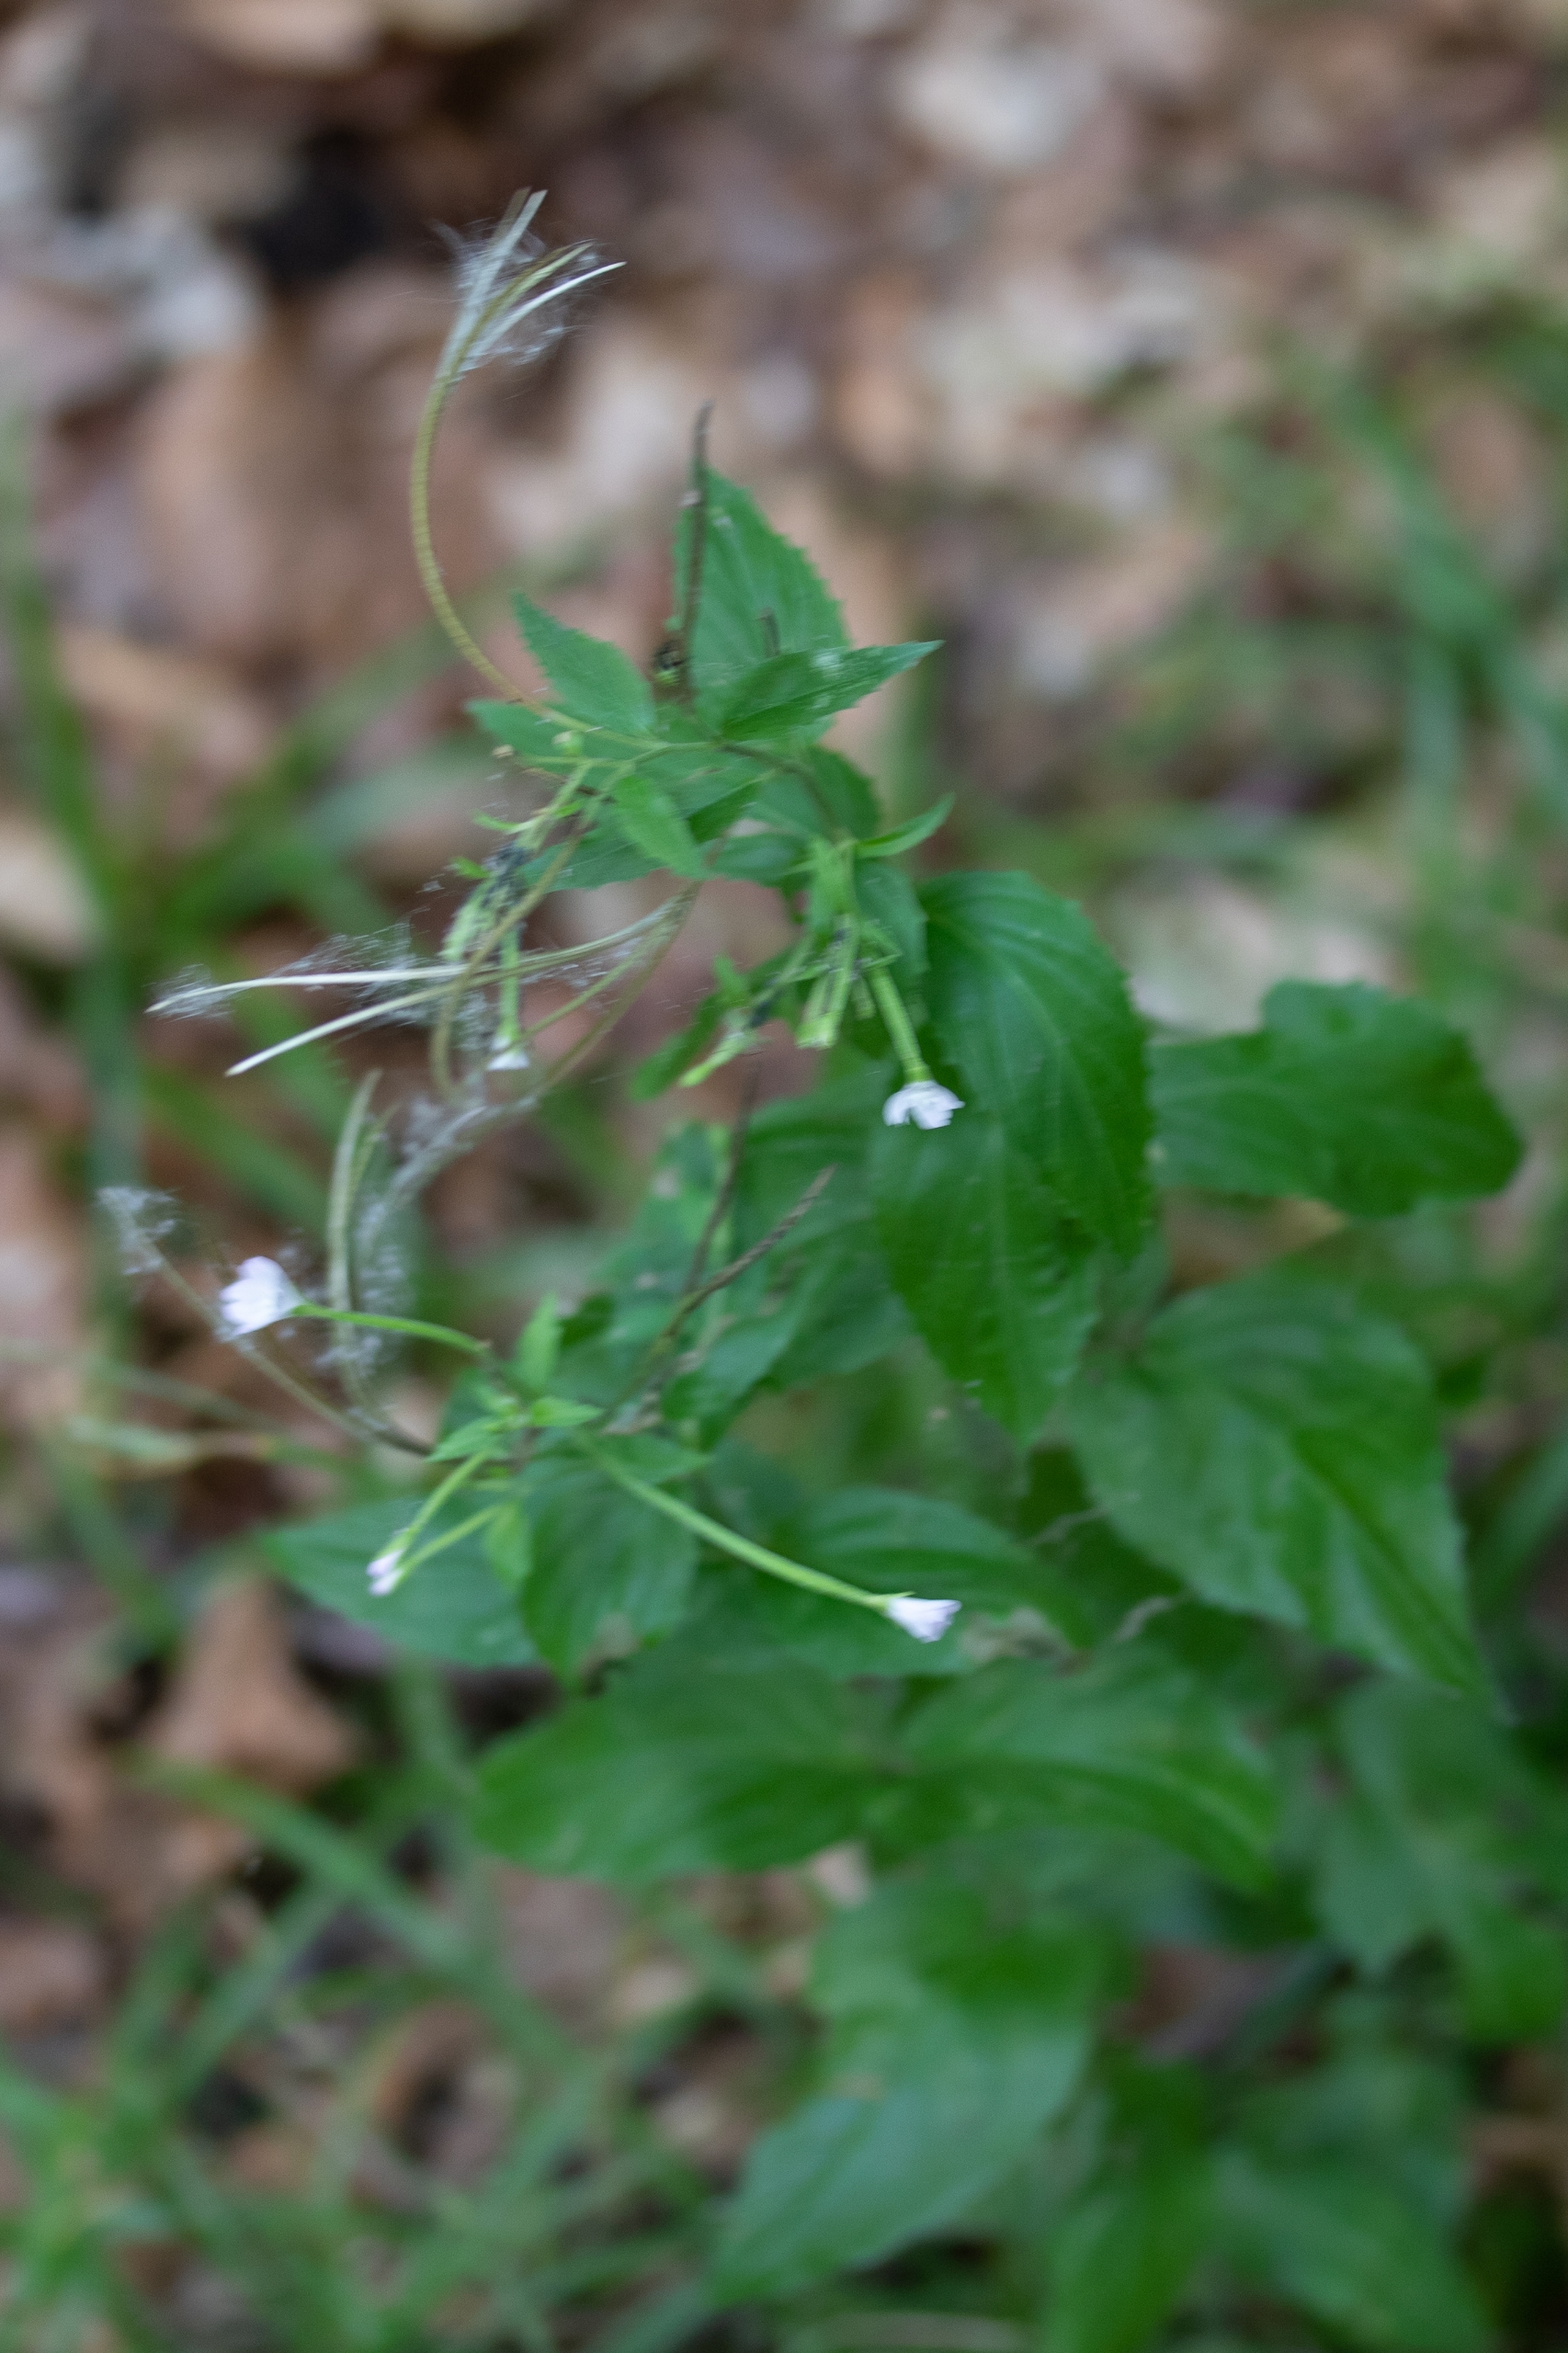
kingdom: Plantae
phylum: Tracheophyta
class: Magnoliopsida
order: Myrtales
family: Onagraceae
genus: Epilobium
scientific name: Epilobium montanum
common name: Glat dueurt
